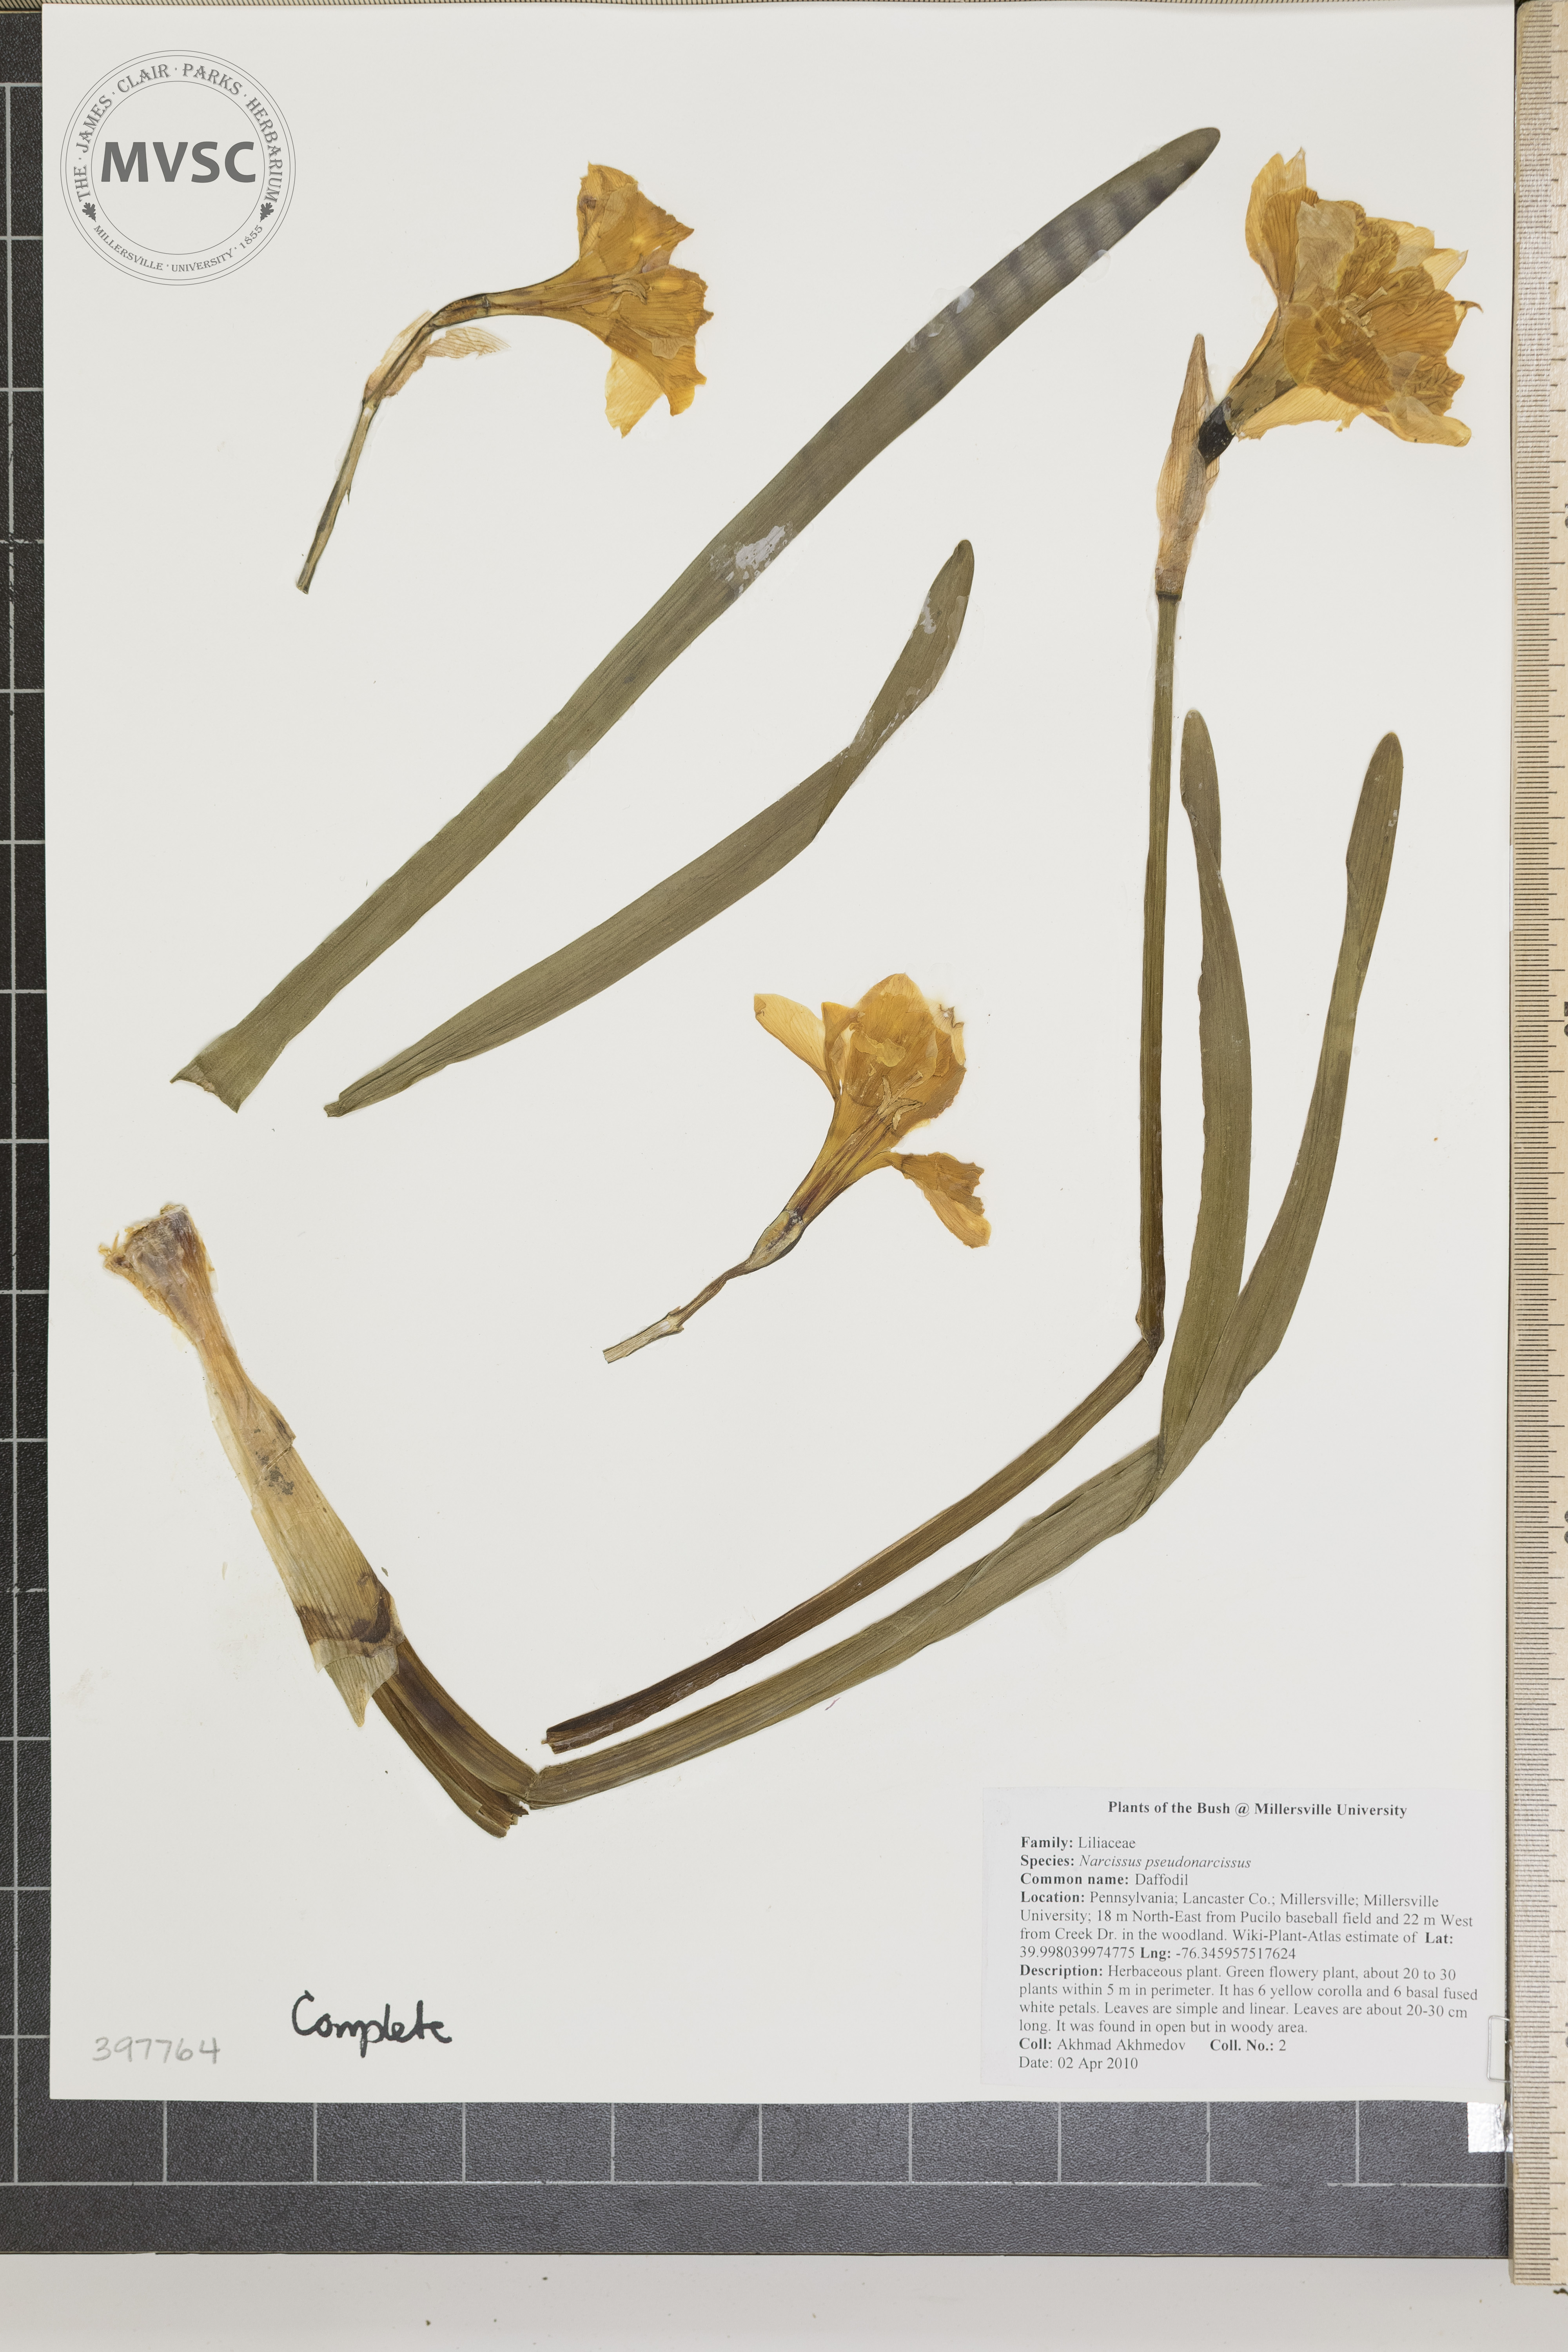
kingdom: Plantae
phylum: Tracheophyta
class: Liliopsida
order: Asparagales
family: Amaryllidaceae
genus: Narcissus
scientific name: Narcissus pseudonarcissus
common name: Daffodil
